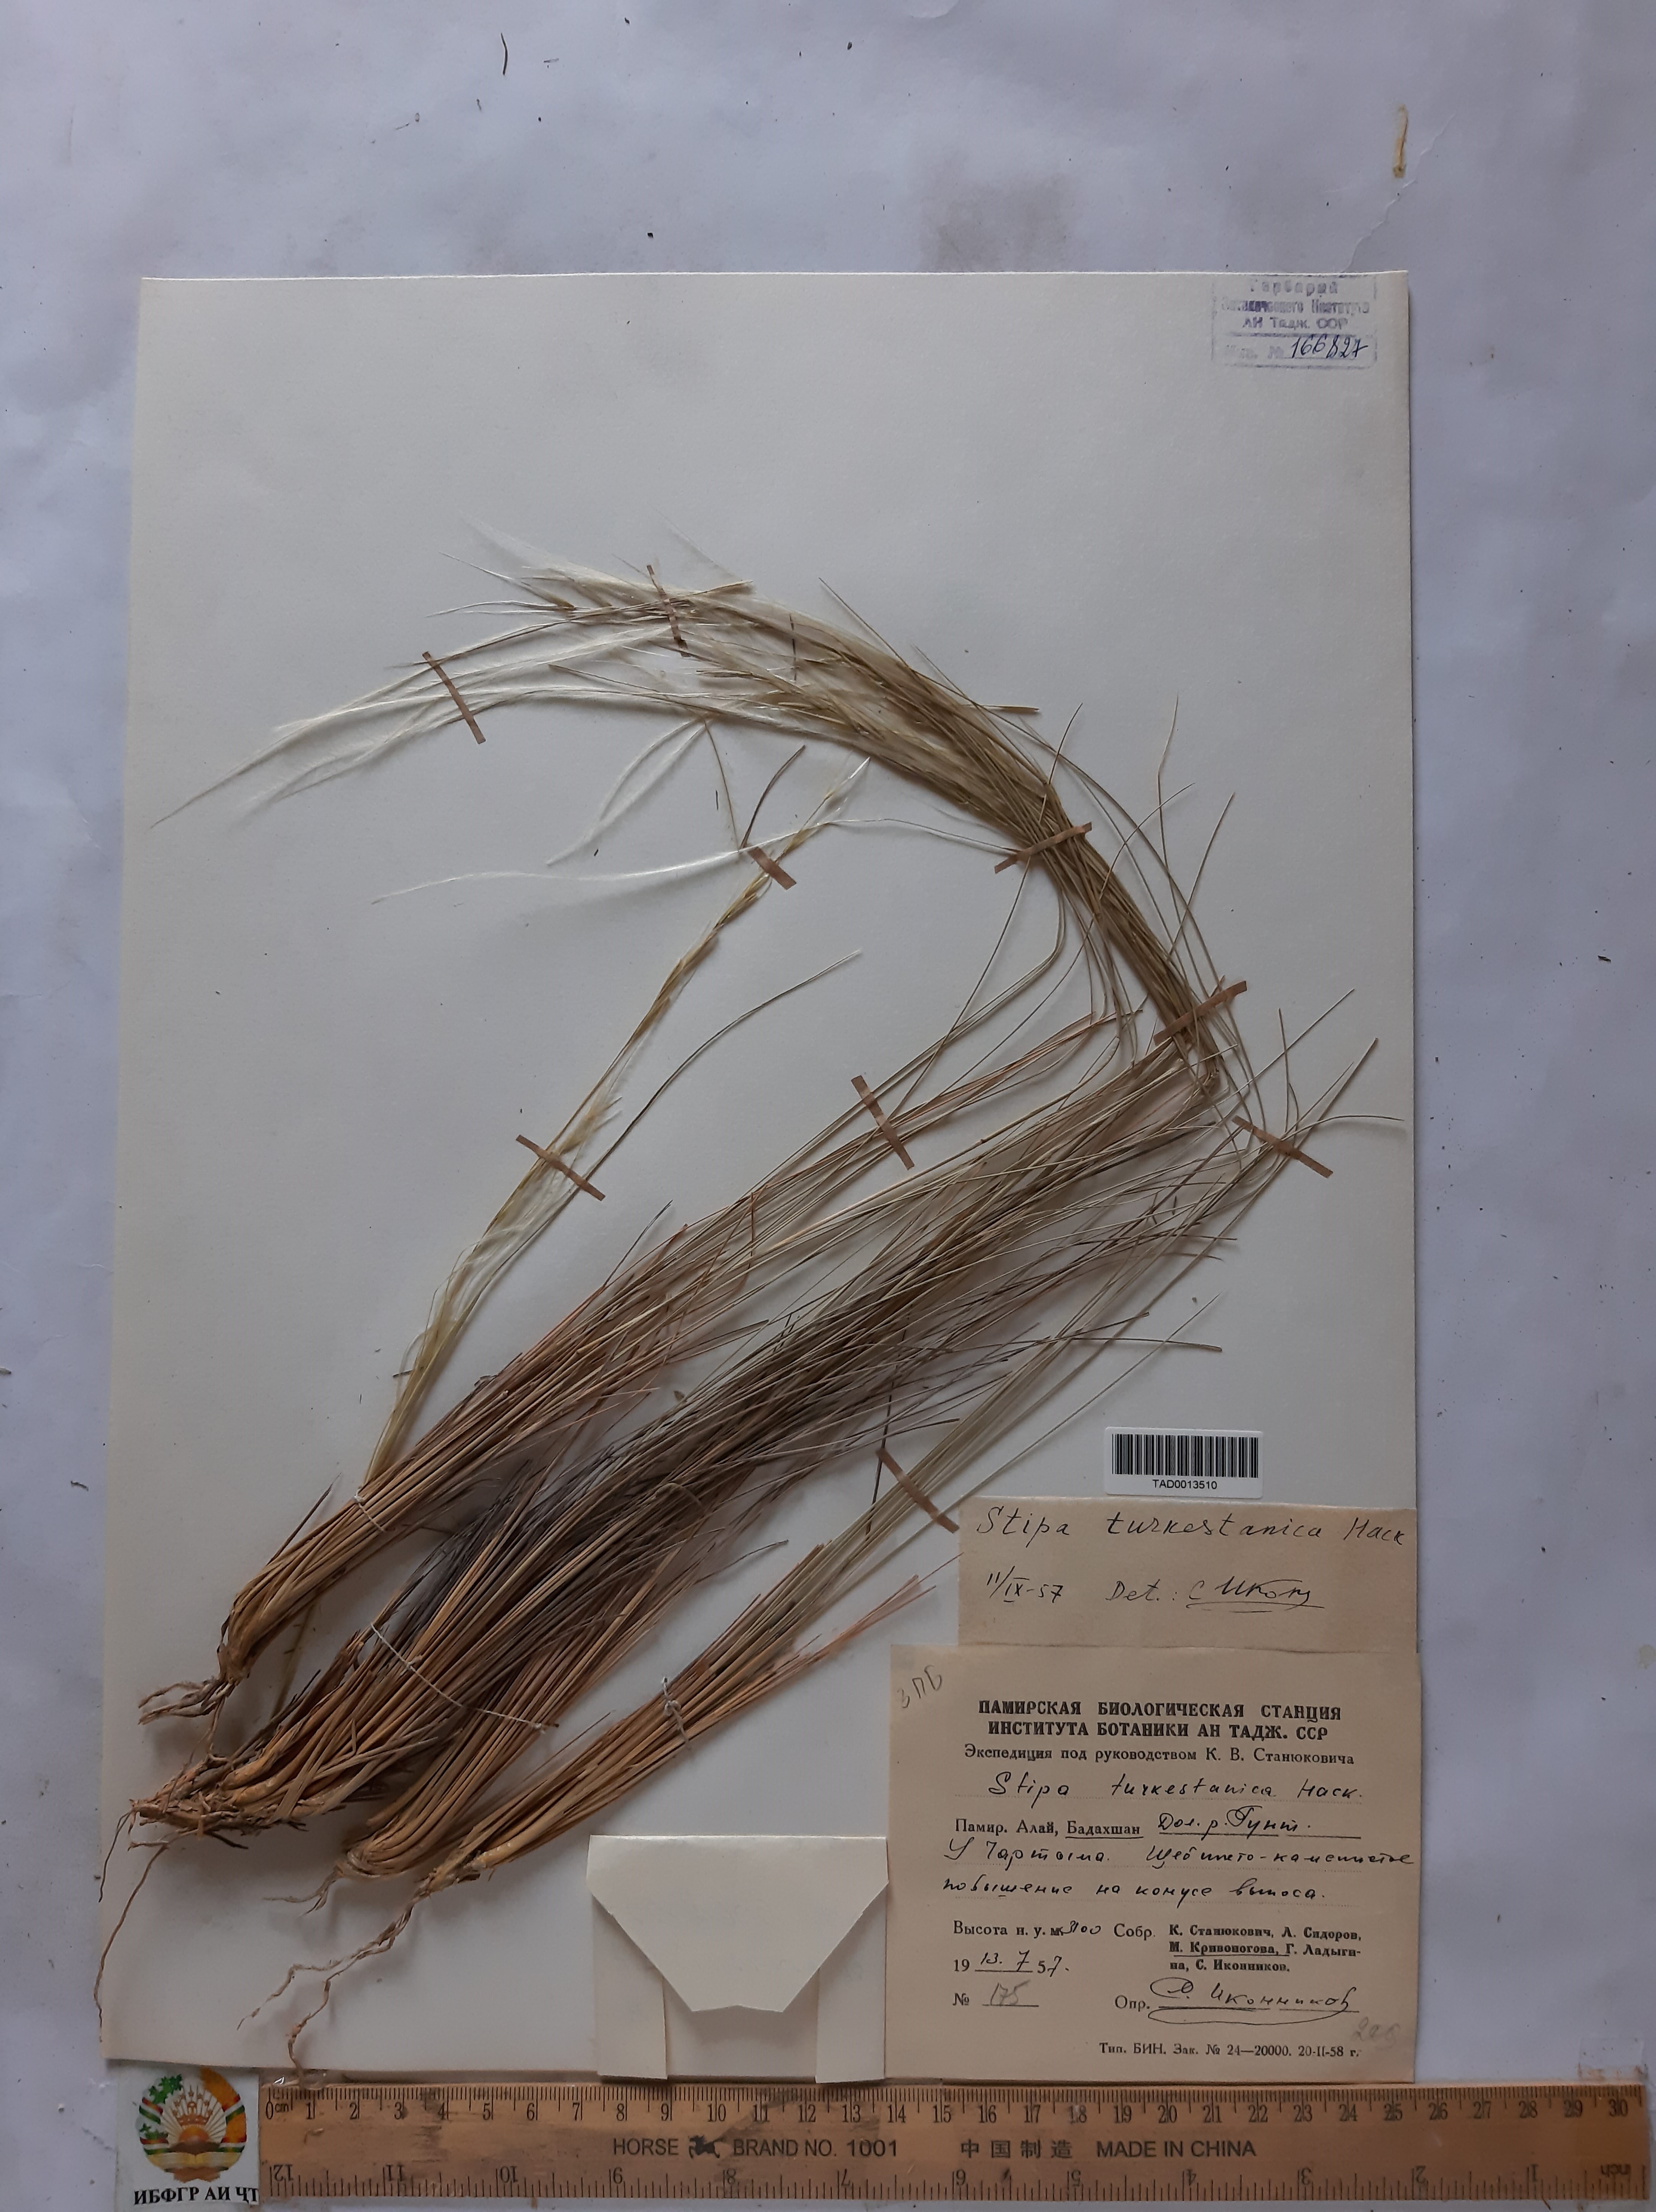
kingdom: Plantae
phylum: Tracheophyta
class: Liliopsida
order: Poales
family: Poaceae
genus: Stipa
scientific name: Stipa turkestanica
